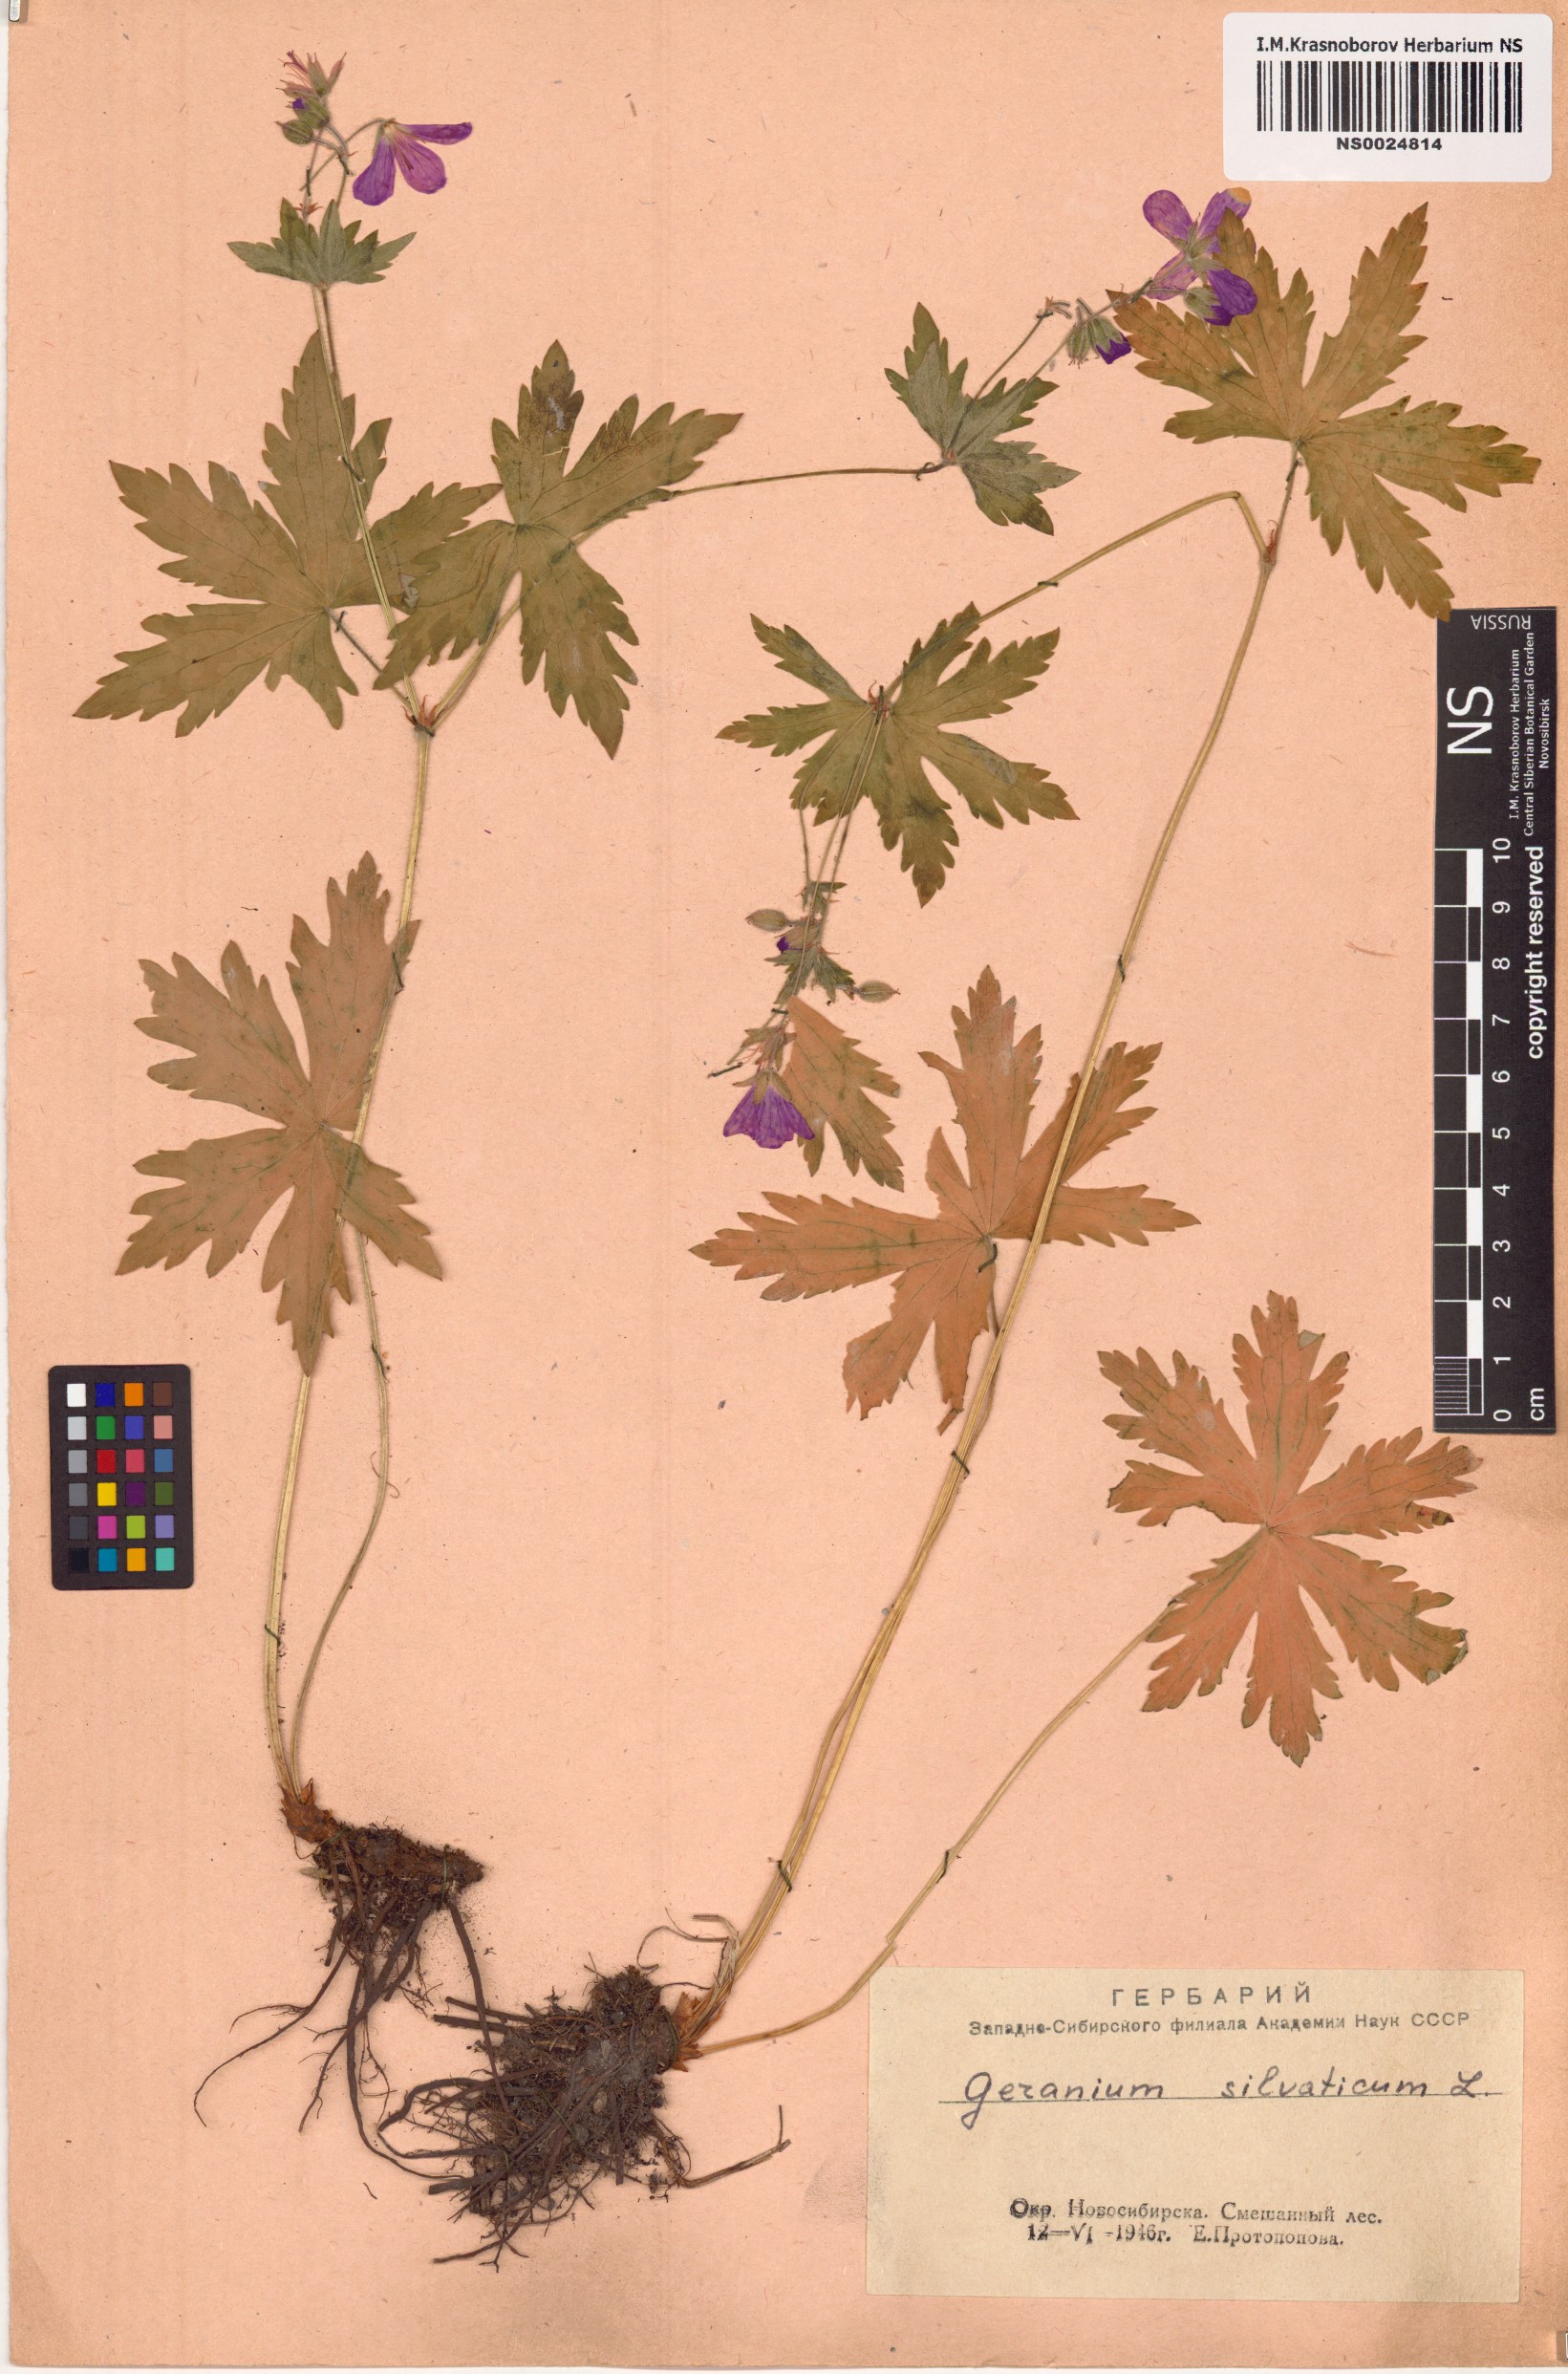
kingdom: Plantae
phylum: Tracheophyta
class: Magnoliopsida
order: Geraniales
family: Geraniaceae
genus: Geranium
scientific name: Geranium sylvaticum
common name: Wood crane's-bill
